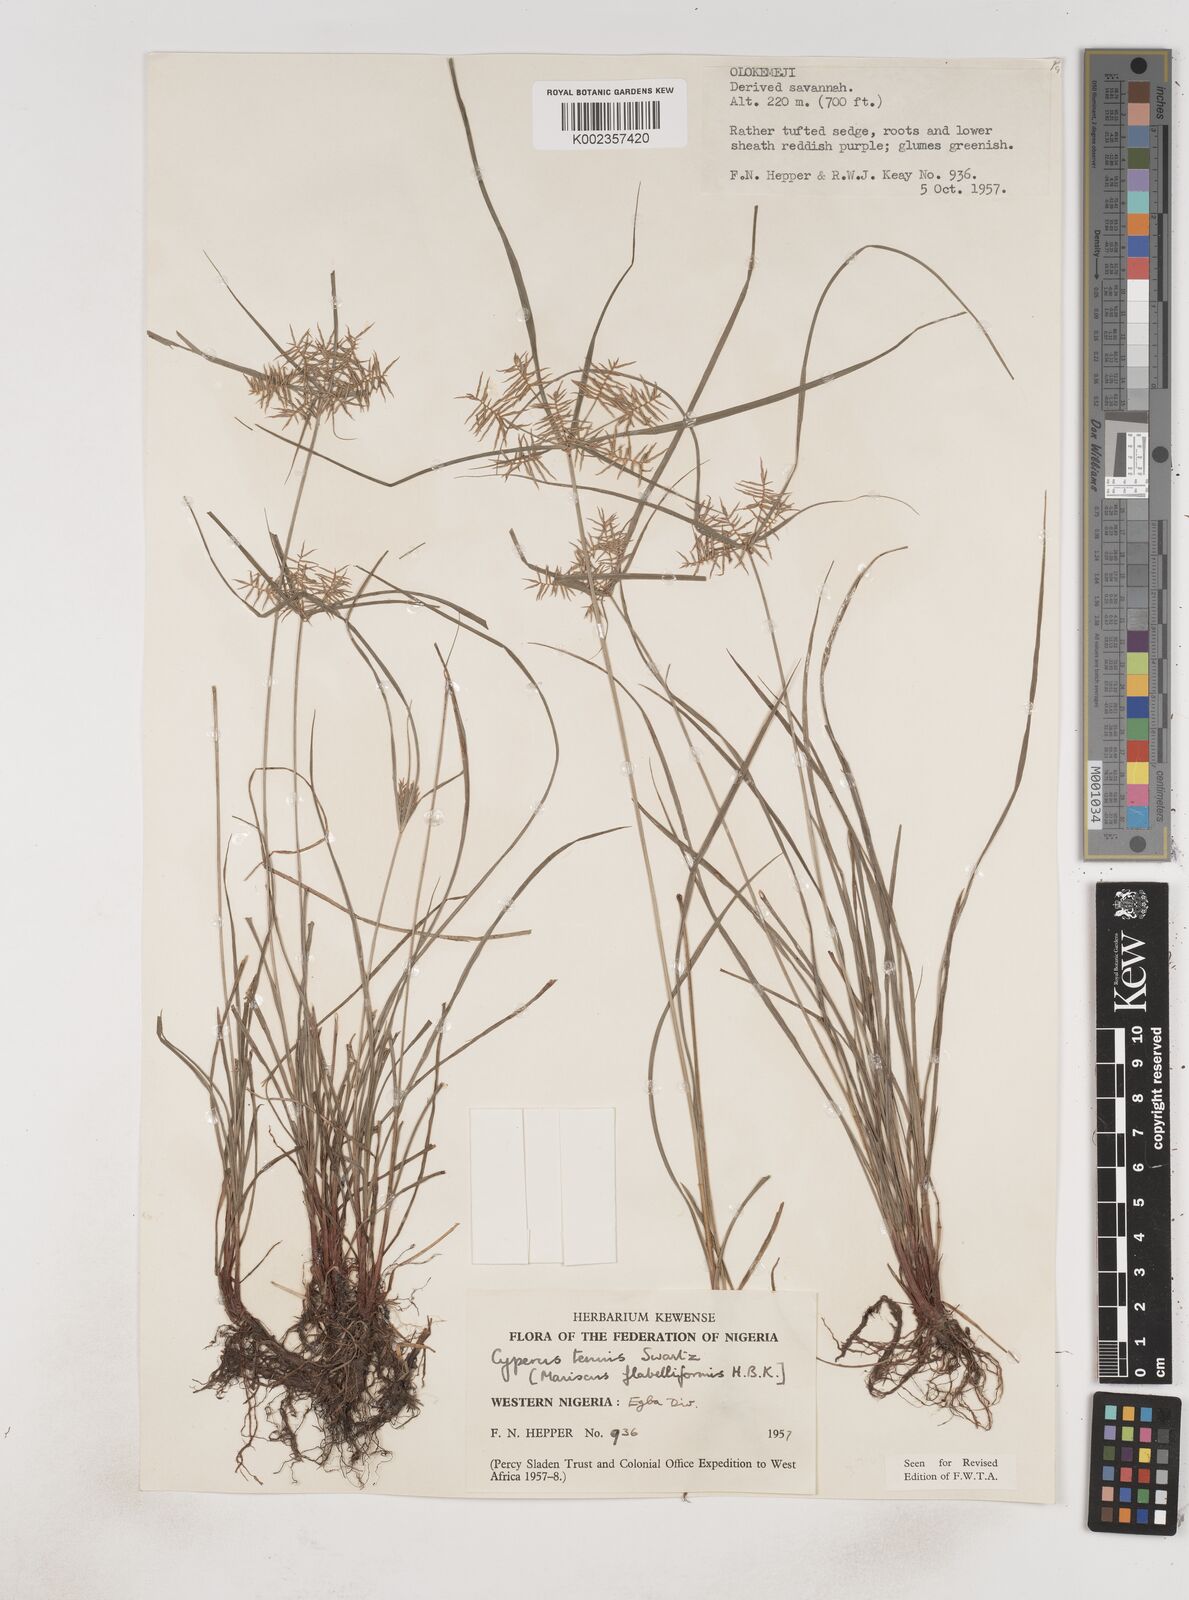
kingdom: Plantae
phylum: Tracheophyta
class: Liliopsida
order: Poales
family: Cyperaceae
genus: Cyperus
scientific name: Cyperus tenuis
